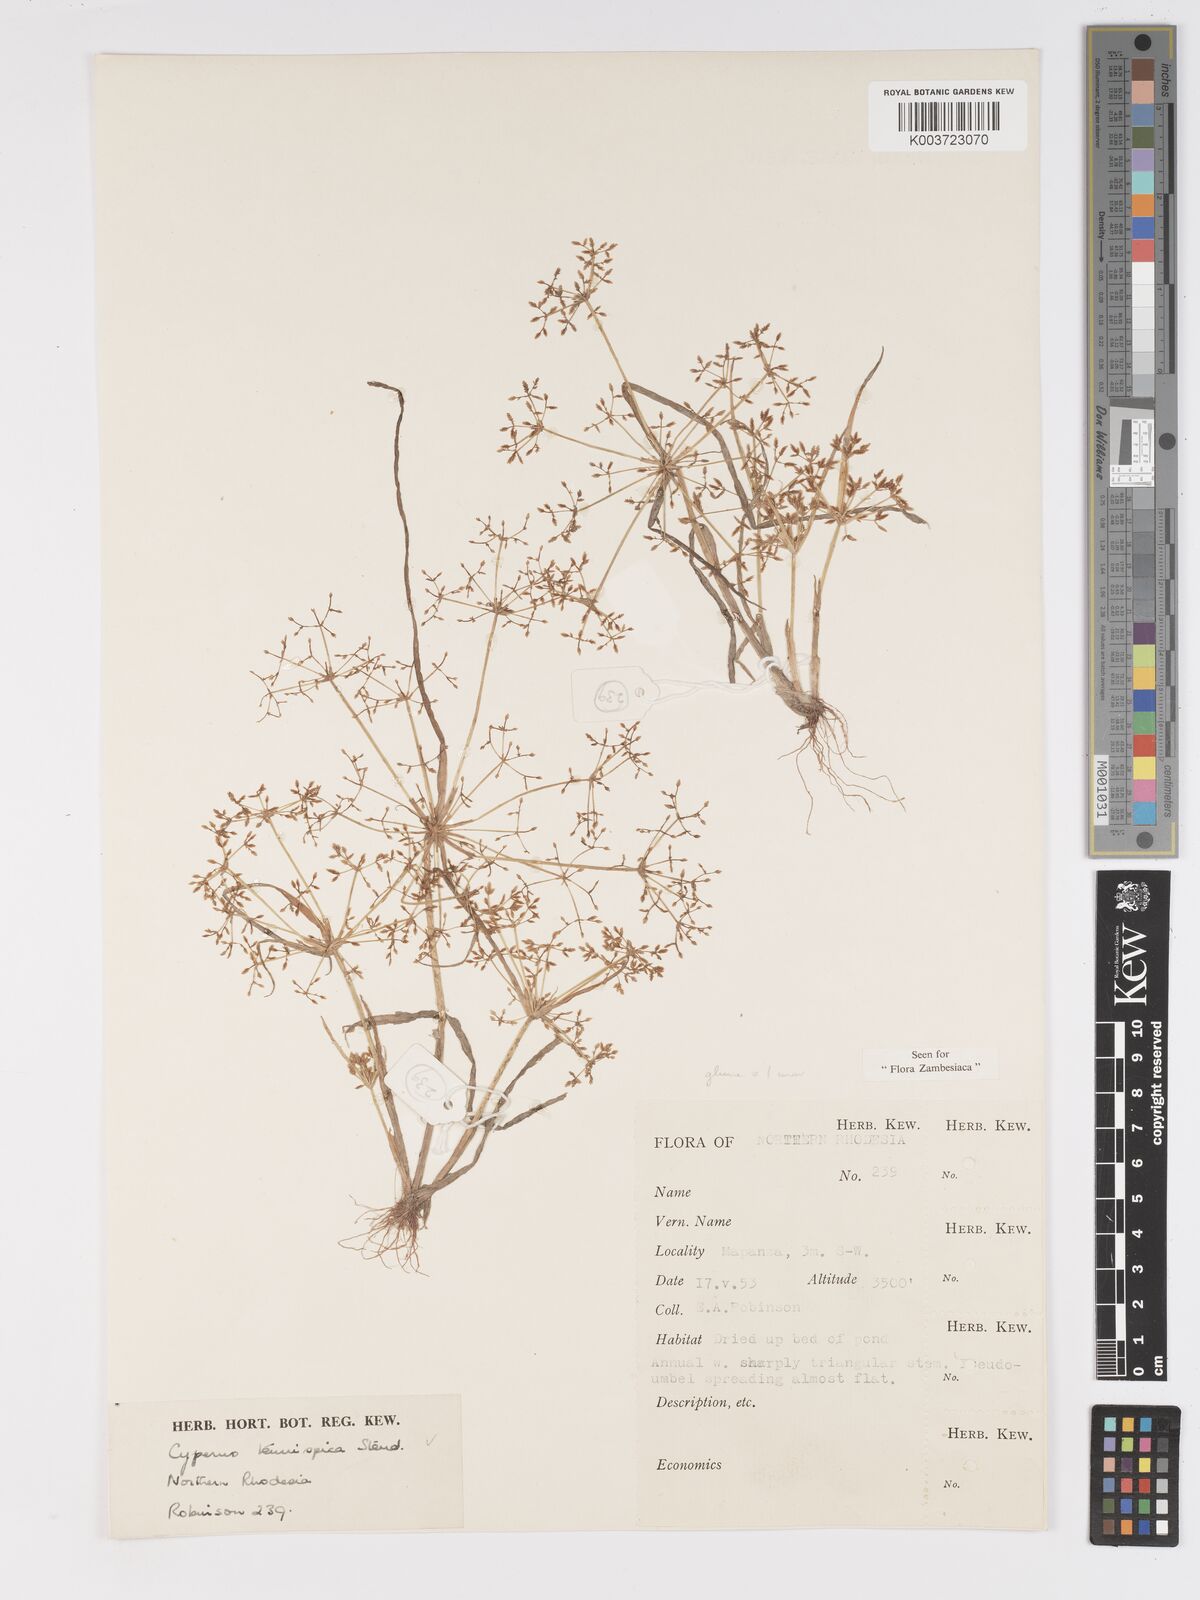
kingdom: Plantae
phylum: Tracheophyta
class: Liliopsida
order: Poales
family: Cyperaceae
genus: Cyperus
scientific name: Cyperus tenuispica
